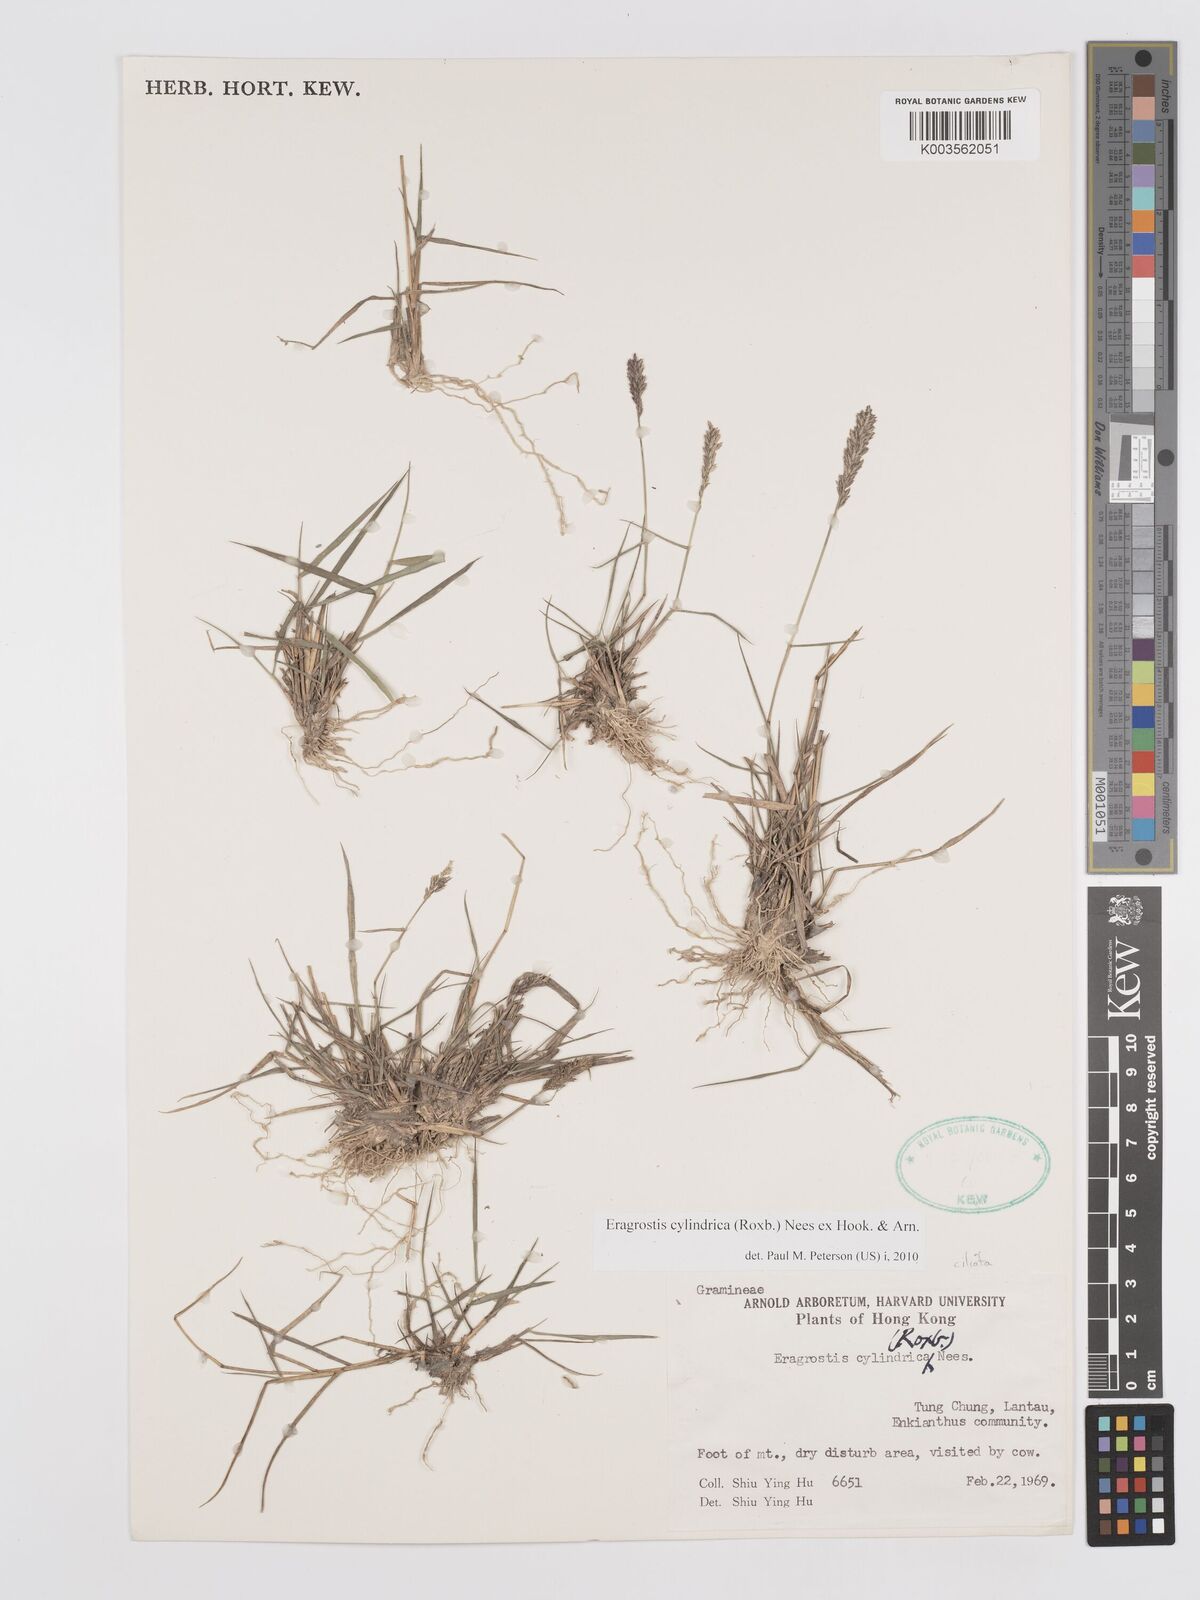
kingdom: Plantae
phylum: Tracheophyta
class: Liliopsida
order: Poales
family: Poaceae
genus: Eragrostis
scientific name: Eragrostis cylindrica
